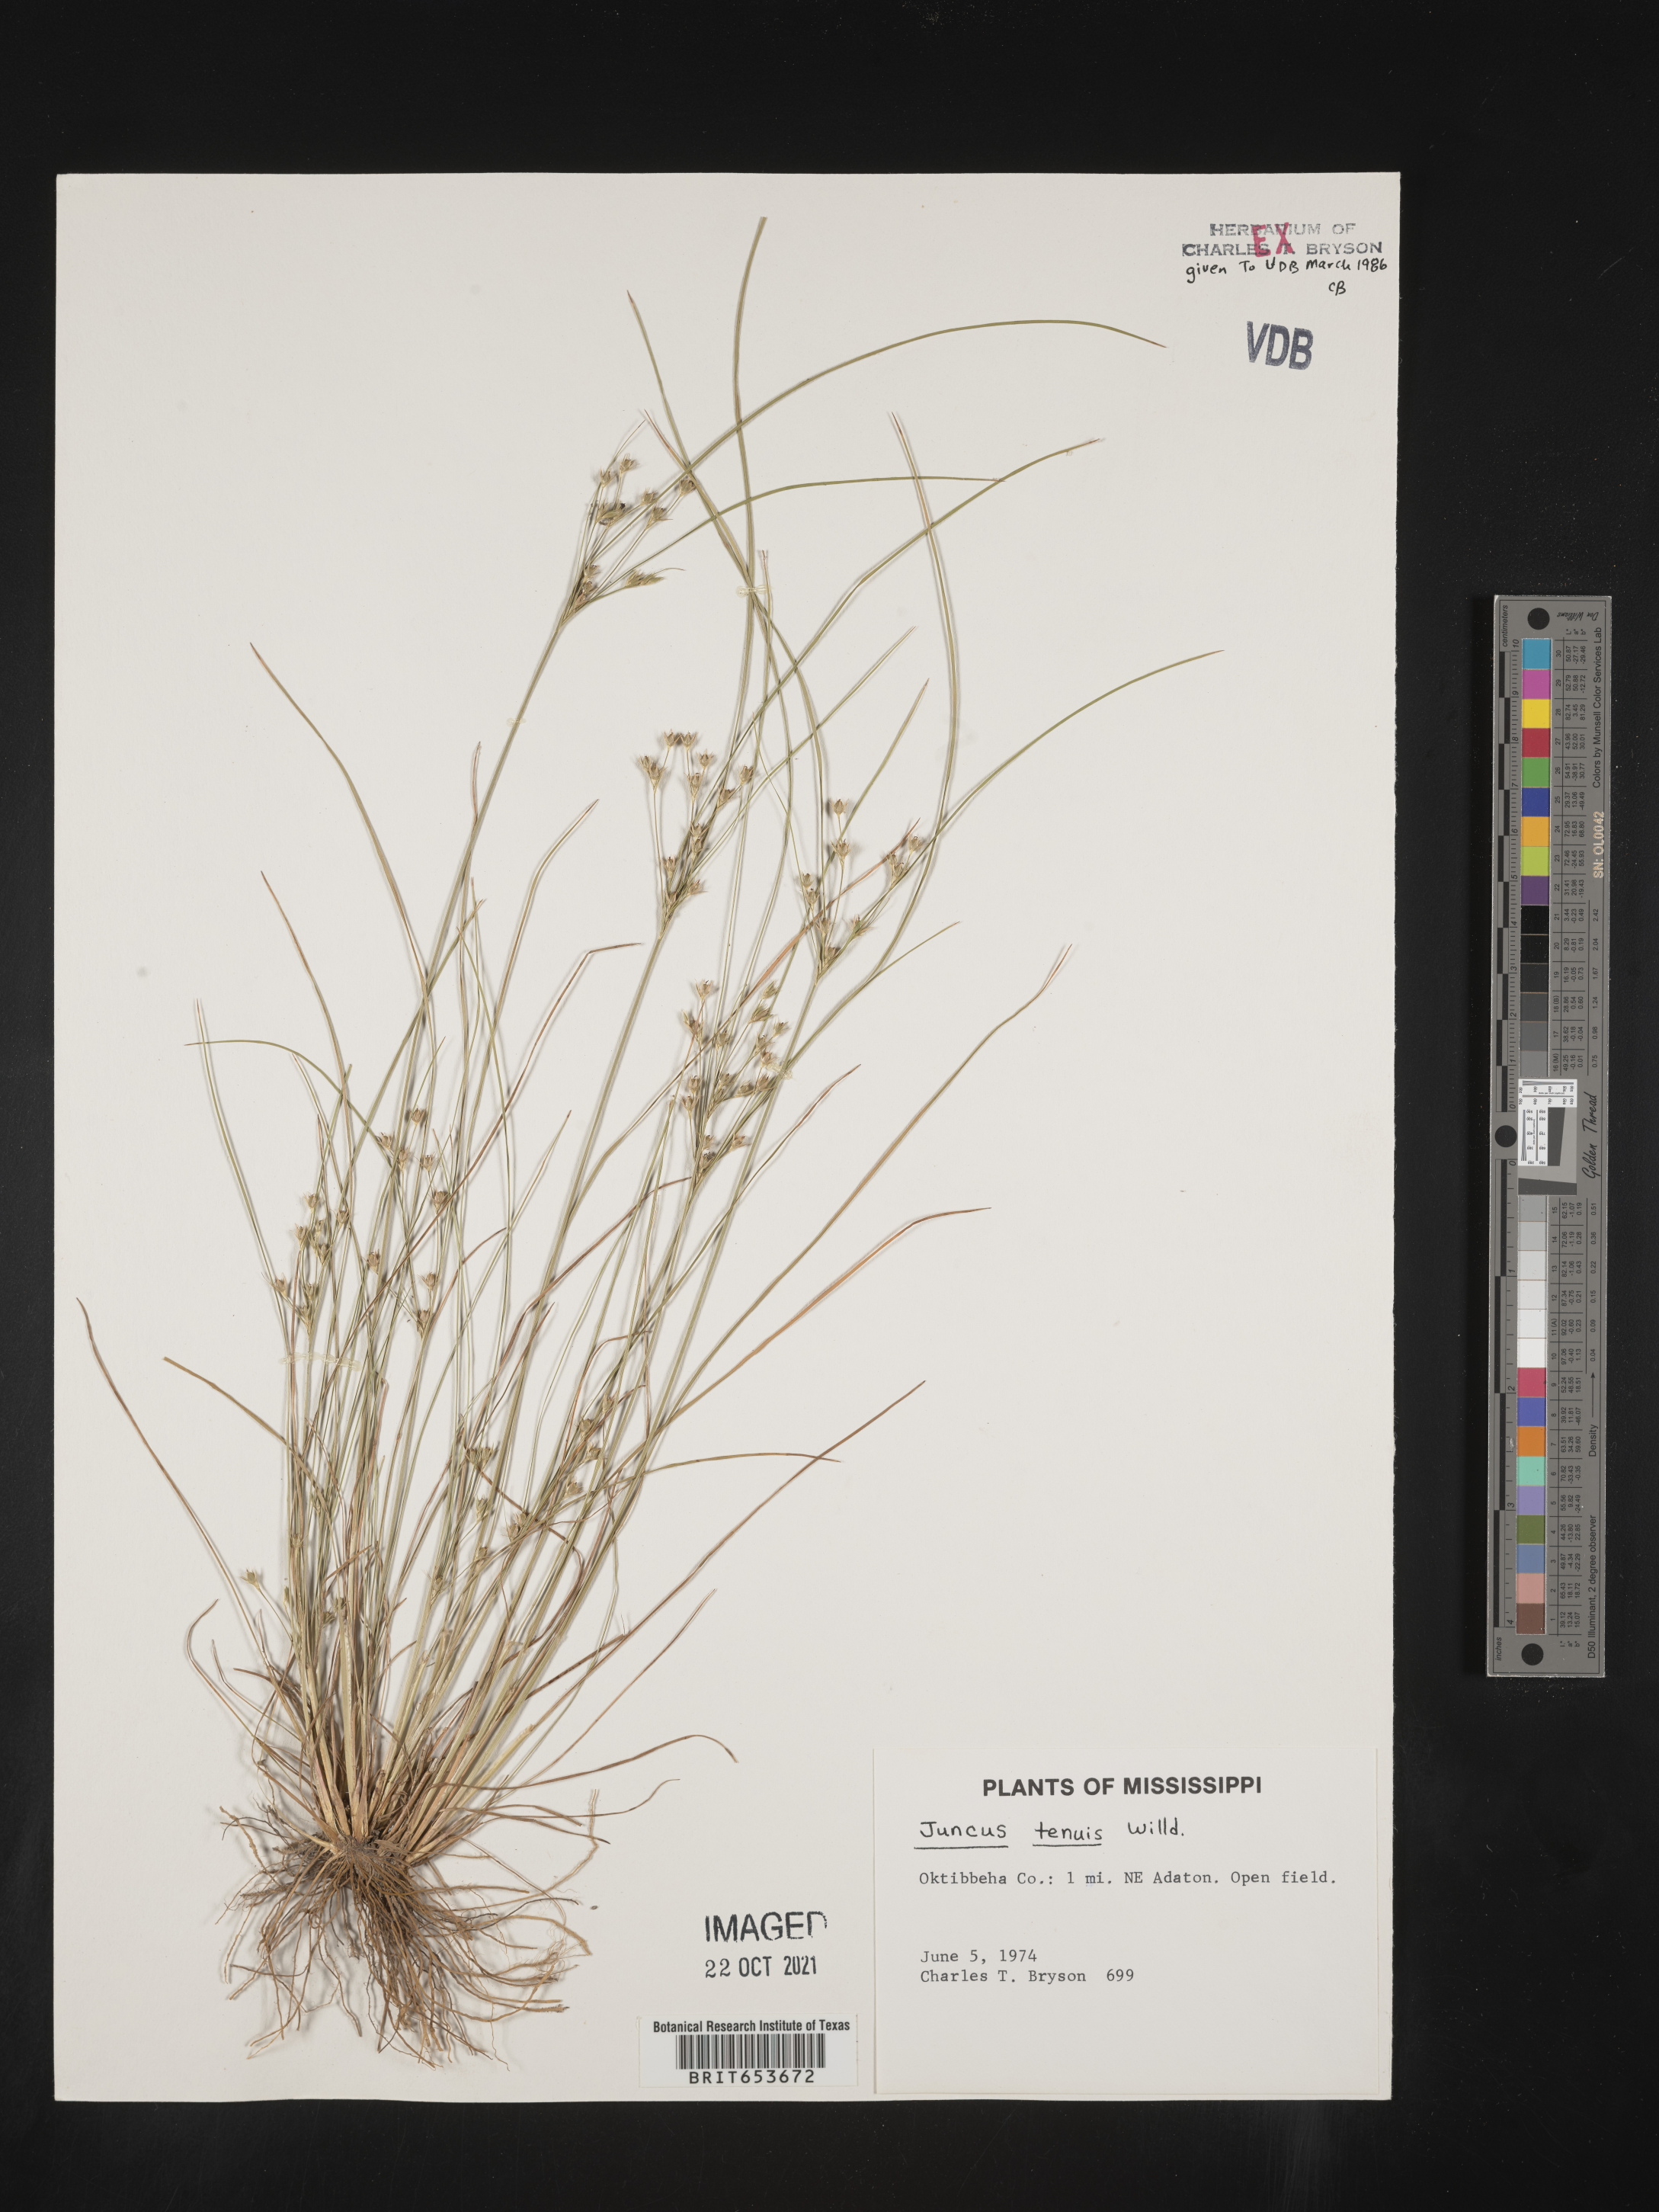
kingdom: Plantae
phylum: Tracheophyta
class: Liliopsida
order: Poales
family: Juncaceae
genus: Juncus
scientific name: Juncus tenuis
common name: Slender rush
